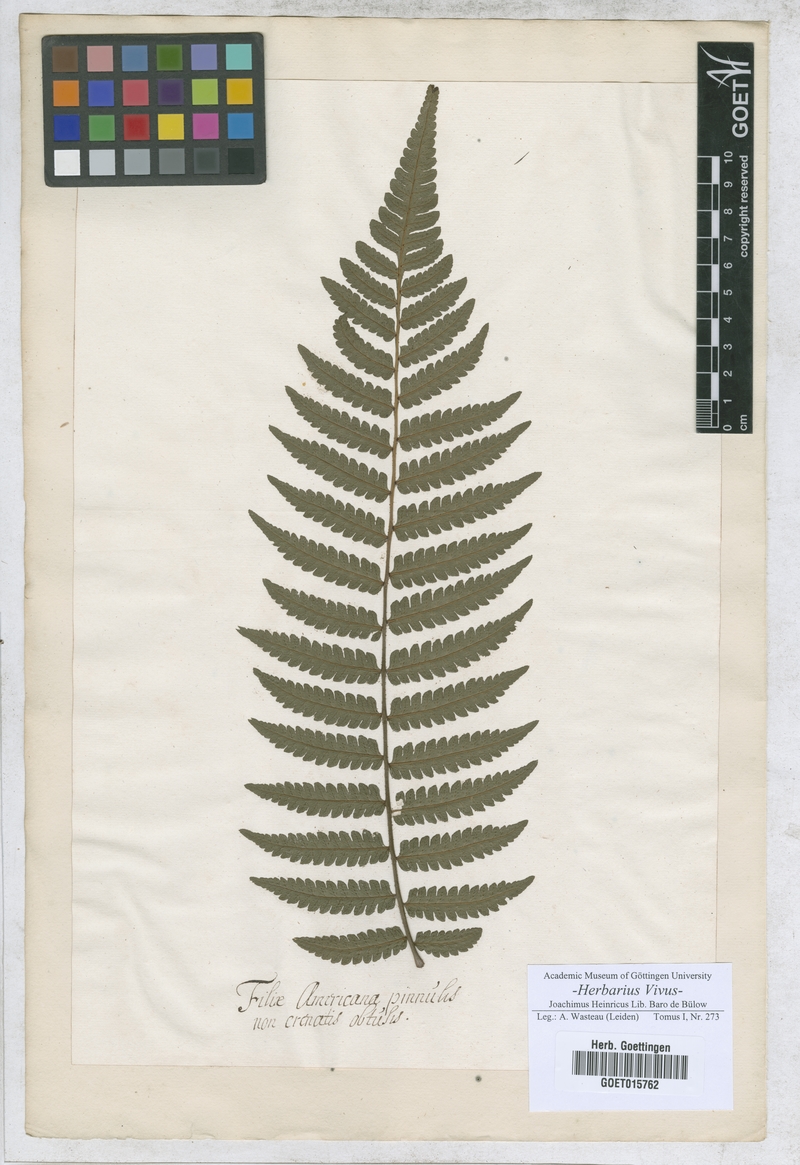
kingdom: Plantae
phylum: Tracheophyta
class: Polypodiopsida
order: Polypodiales
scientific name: Polypodiales
